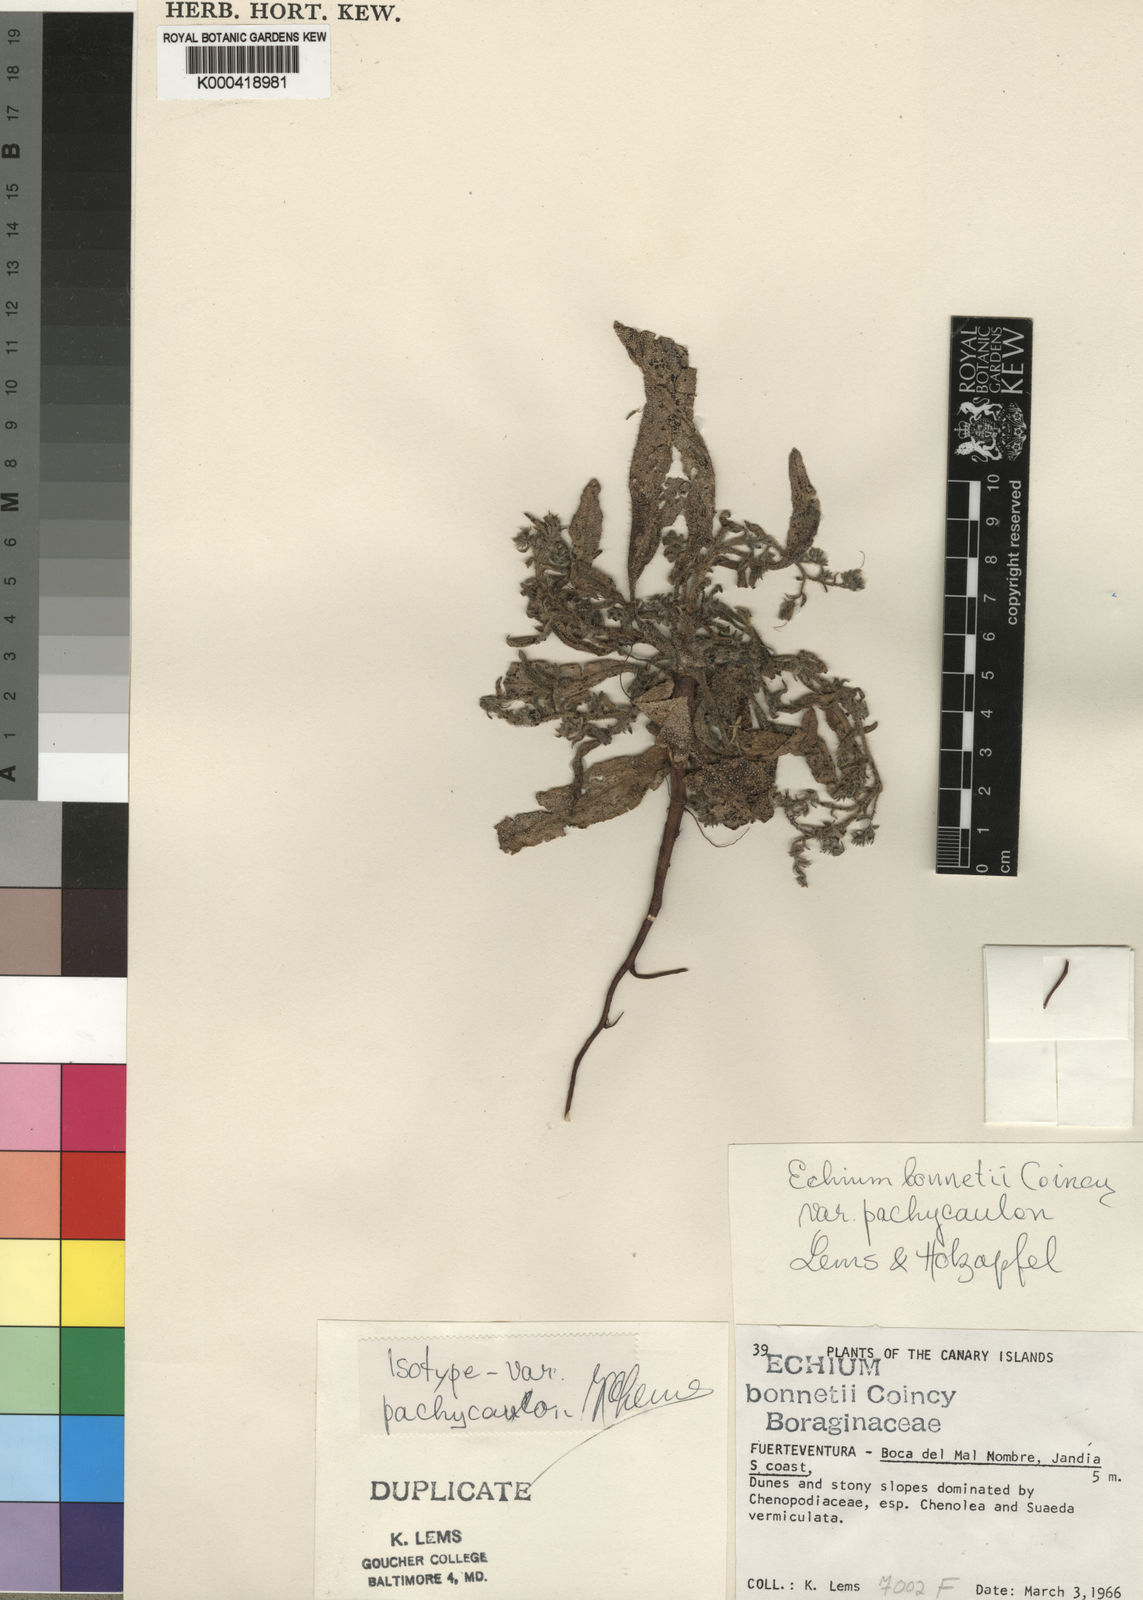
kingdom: Plantae
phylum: Tracheophyta
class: Magnoliopsida
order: Boraginales
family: Boraginaceae
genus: Echium
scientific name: Echium bonnetii
